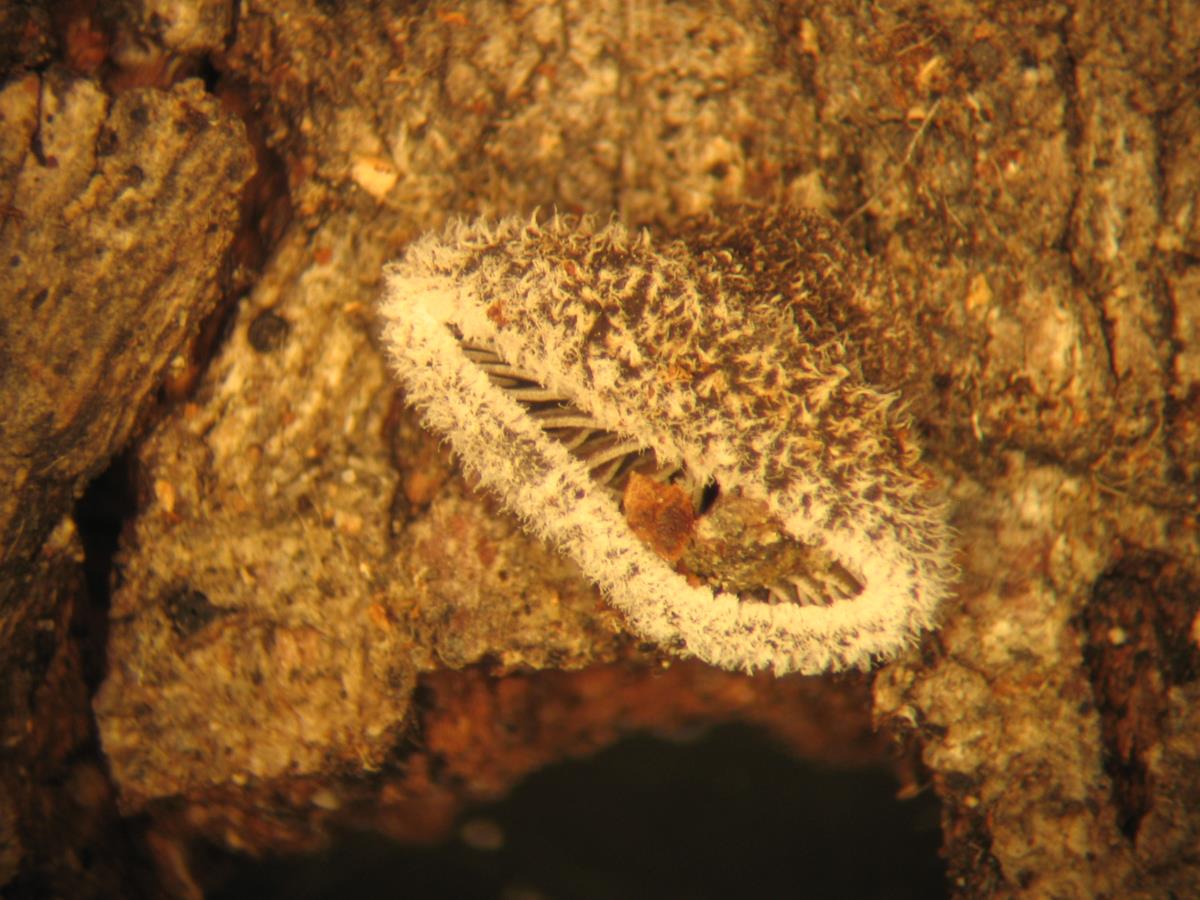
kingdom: Fungi
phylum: Basidiomycota
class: Agaricomycetes
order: Agaricales
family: Omphalotaceae
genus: Marasmiellus
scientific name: Marasmiellus violaceogriseus
